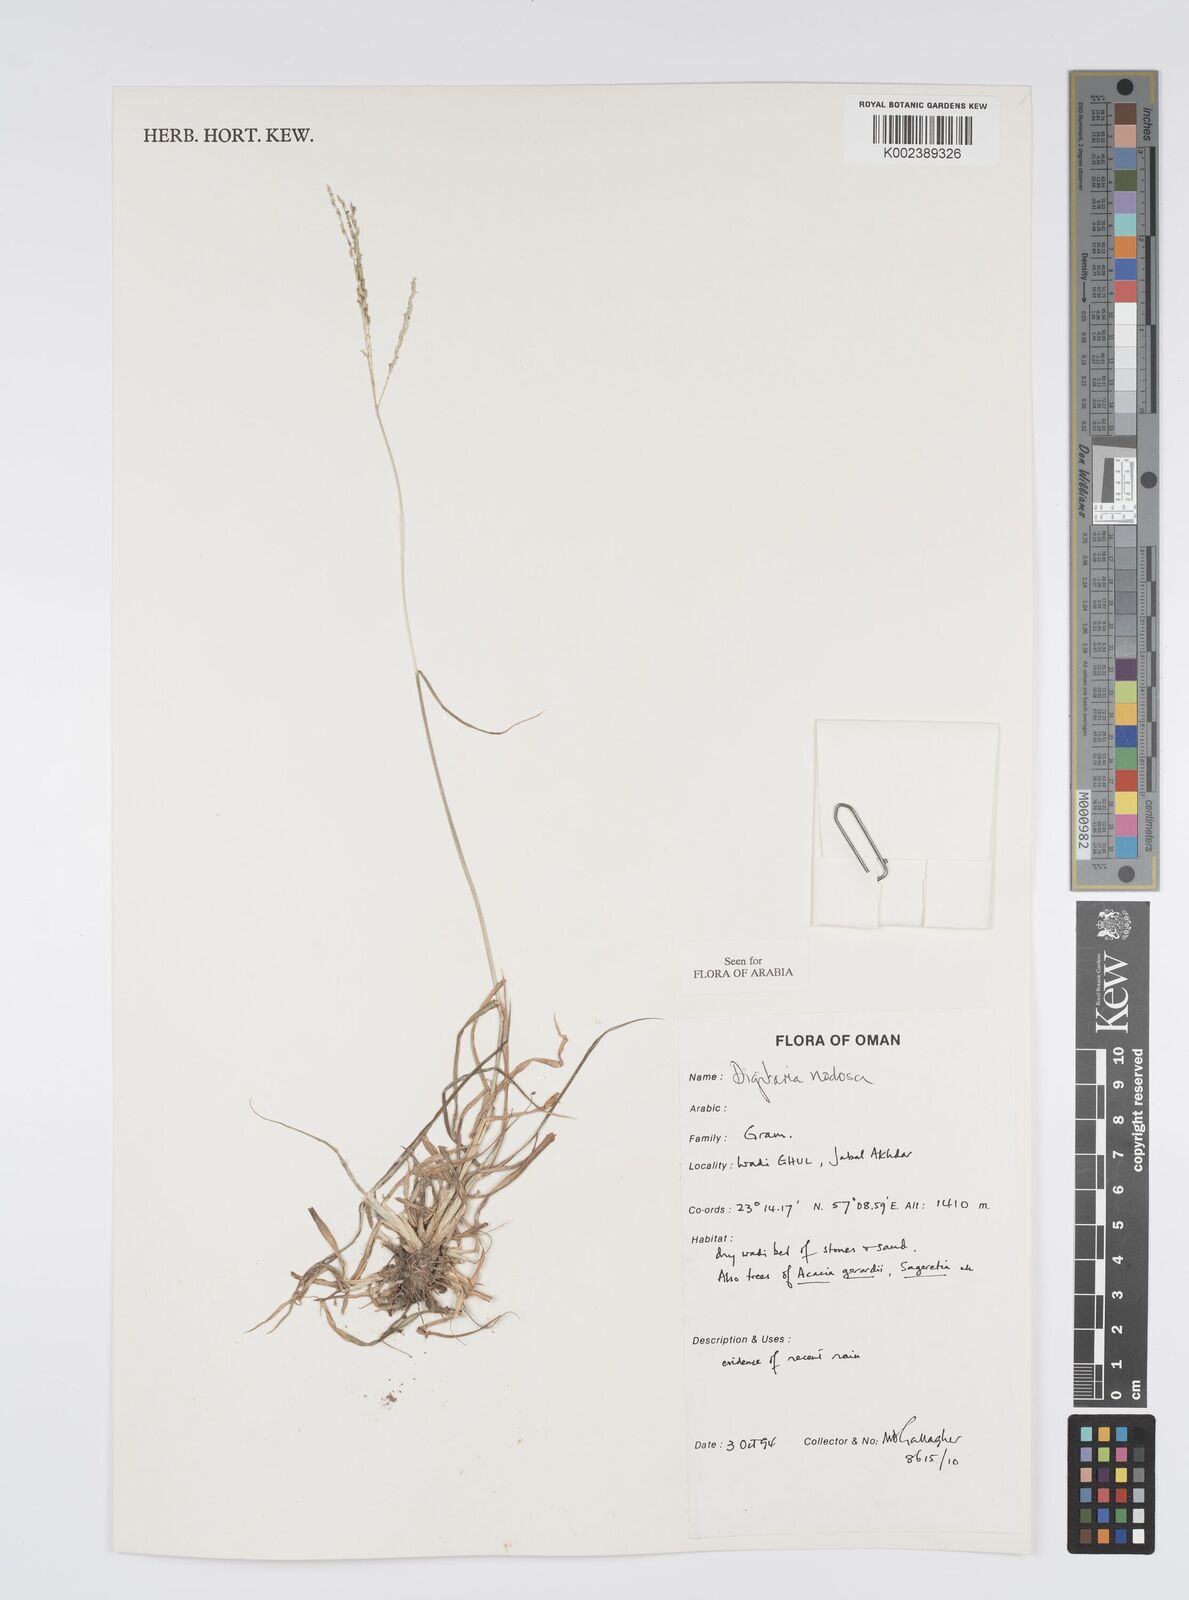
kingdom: Plantae
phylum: Tracheophyta
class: Liliopsida
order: Poales
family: Poaceae
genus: Digitaria
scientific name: Digitaria nodosa
